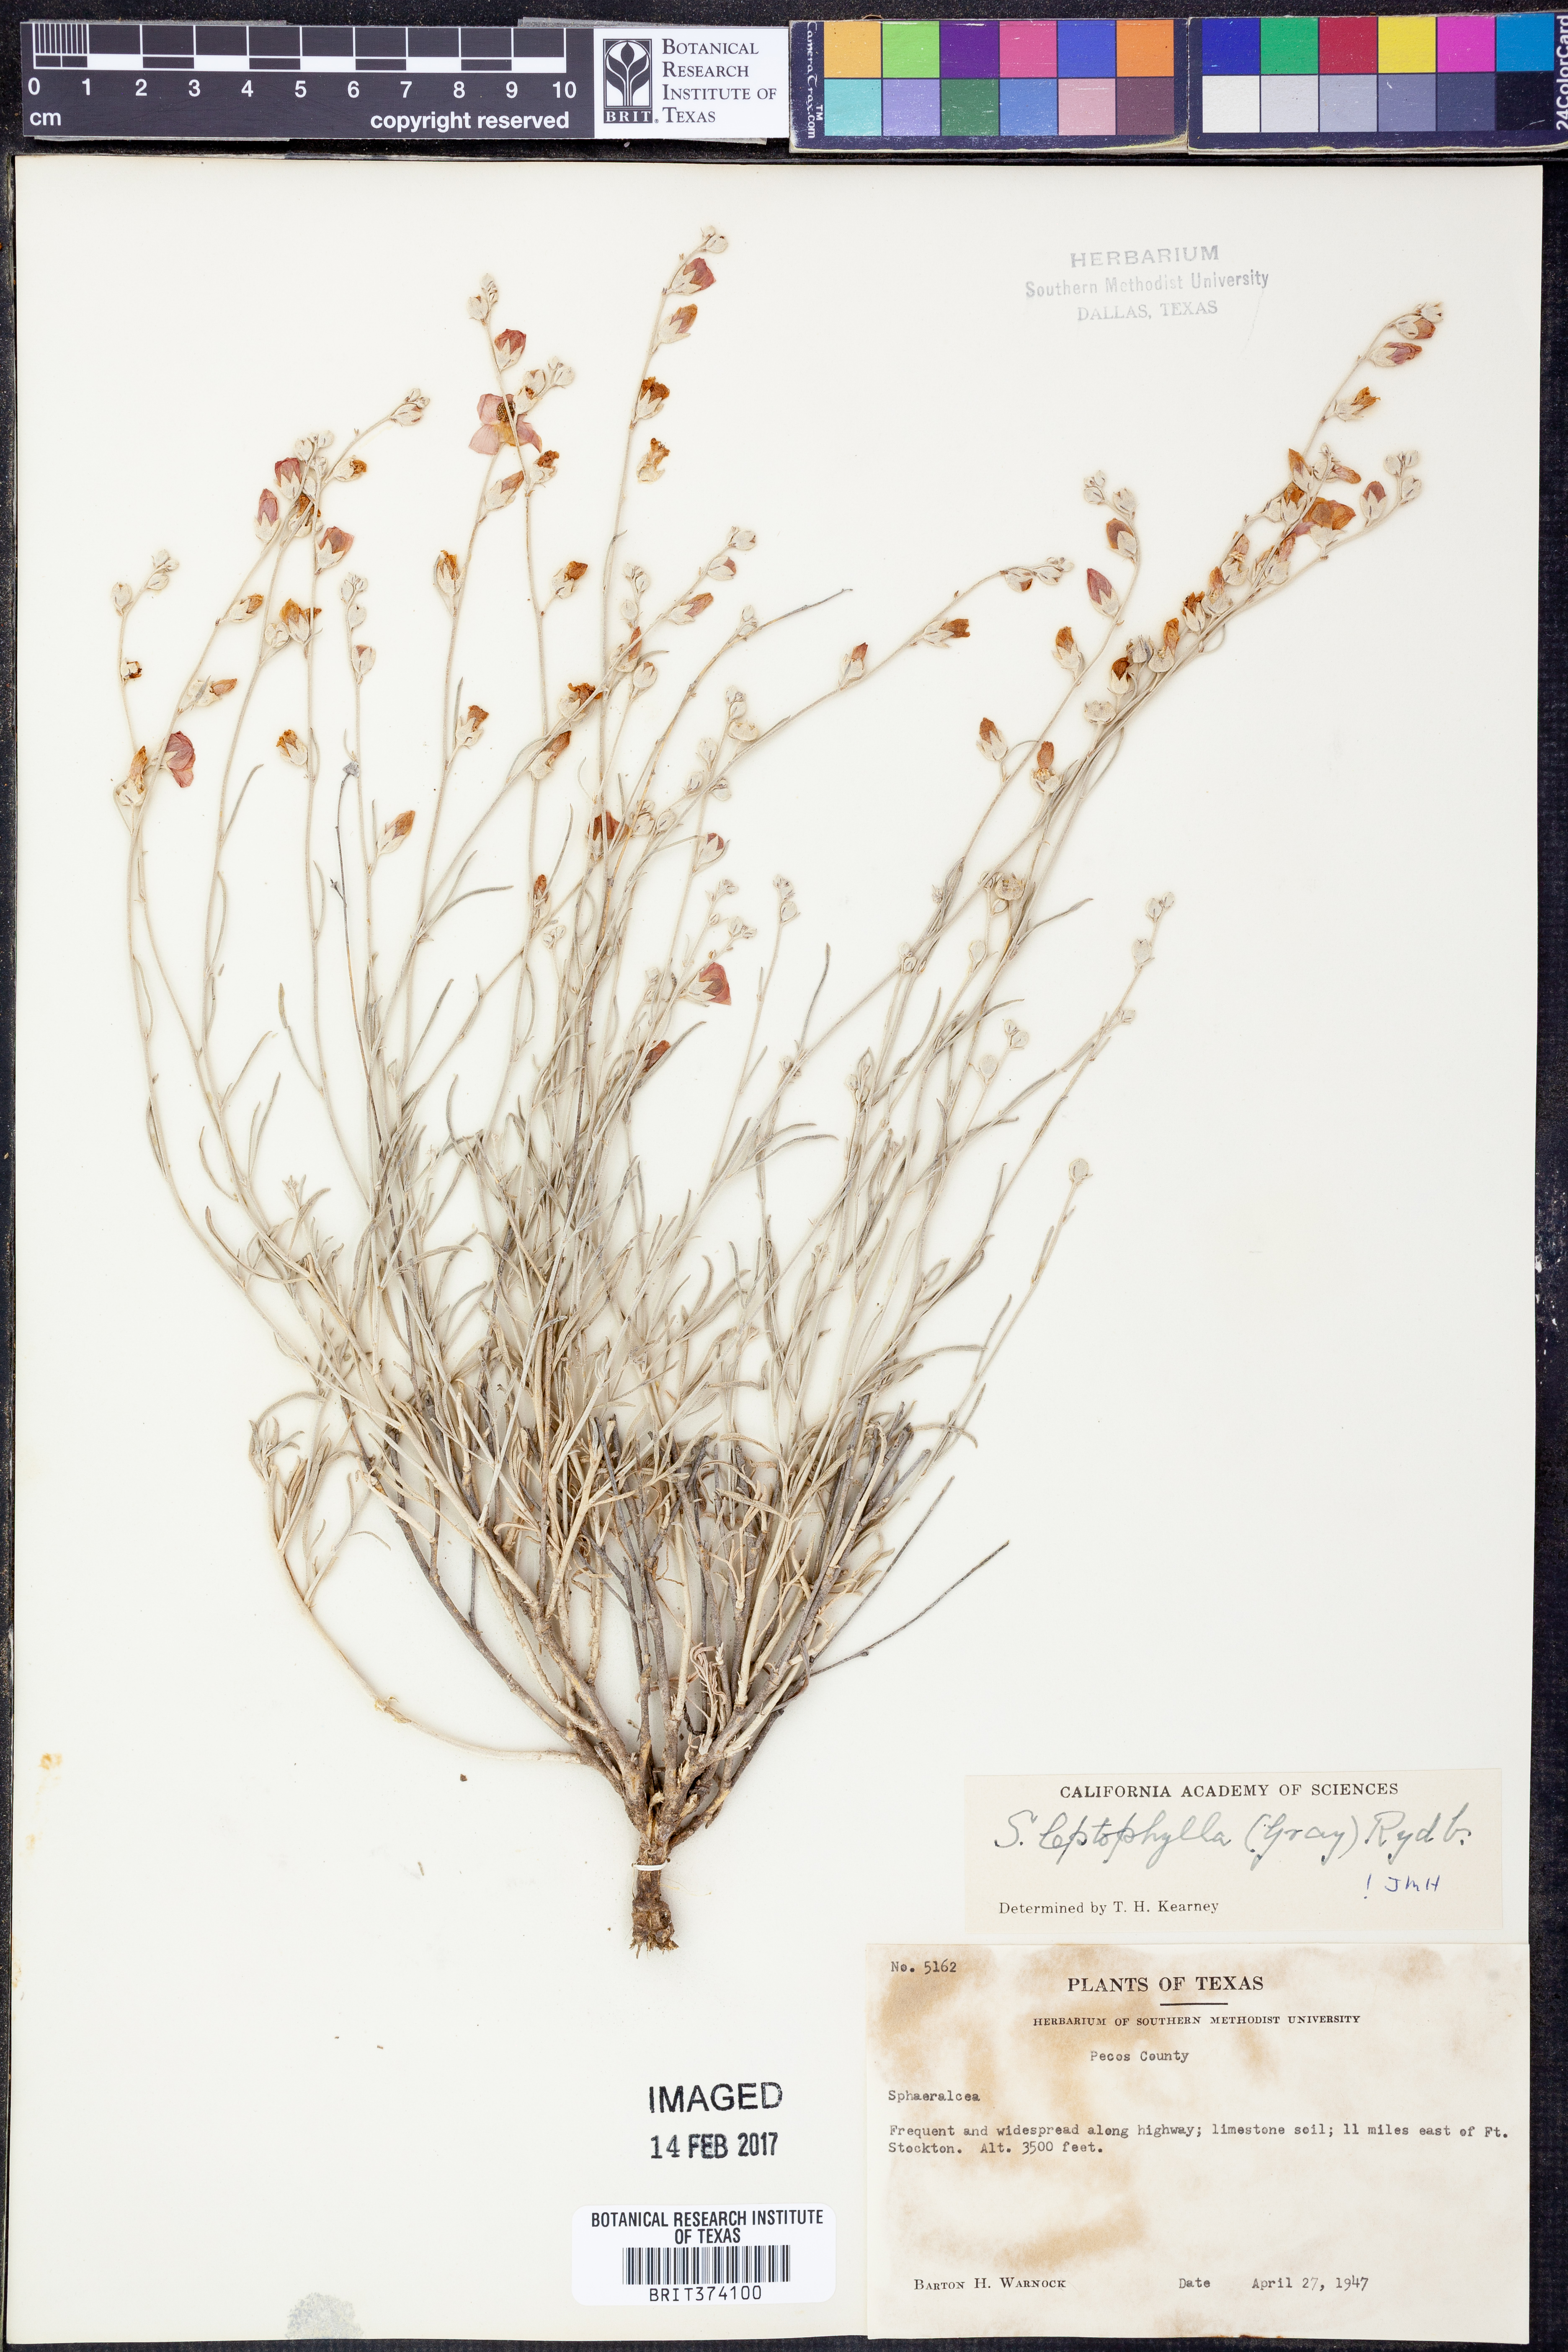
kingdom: Plantae
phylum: Tracheophyta
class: Magnoliopsida
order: Malvales
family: Malvaceae
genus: Sphaeralcea
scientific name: Sphaeralcea leptophylla
